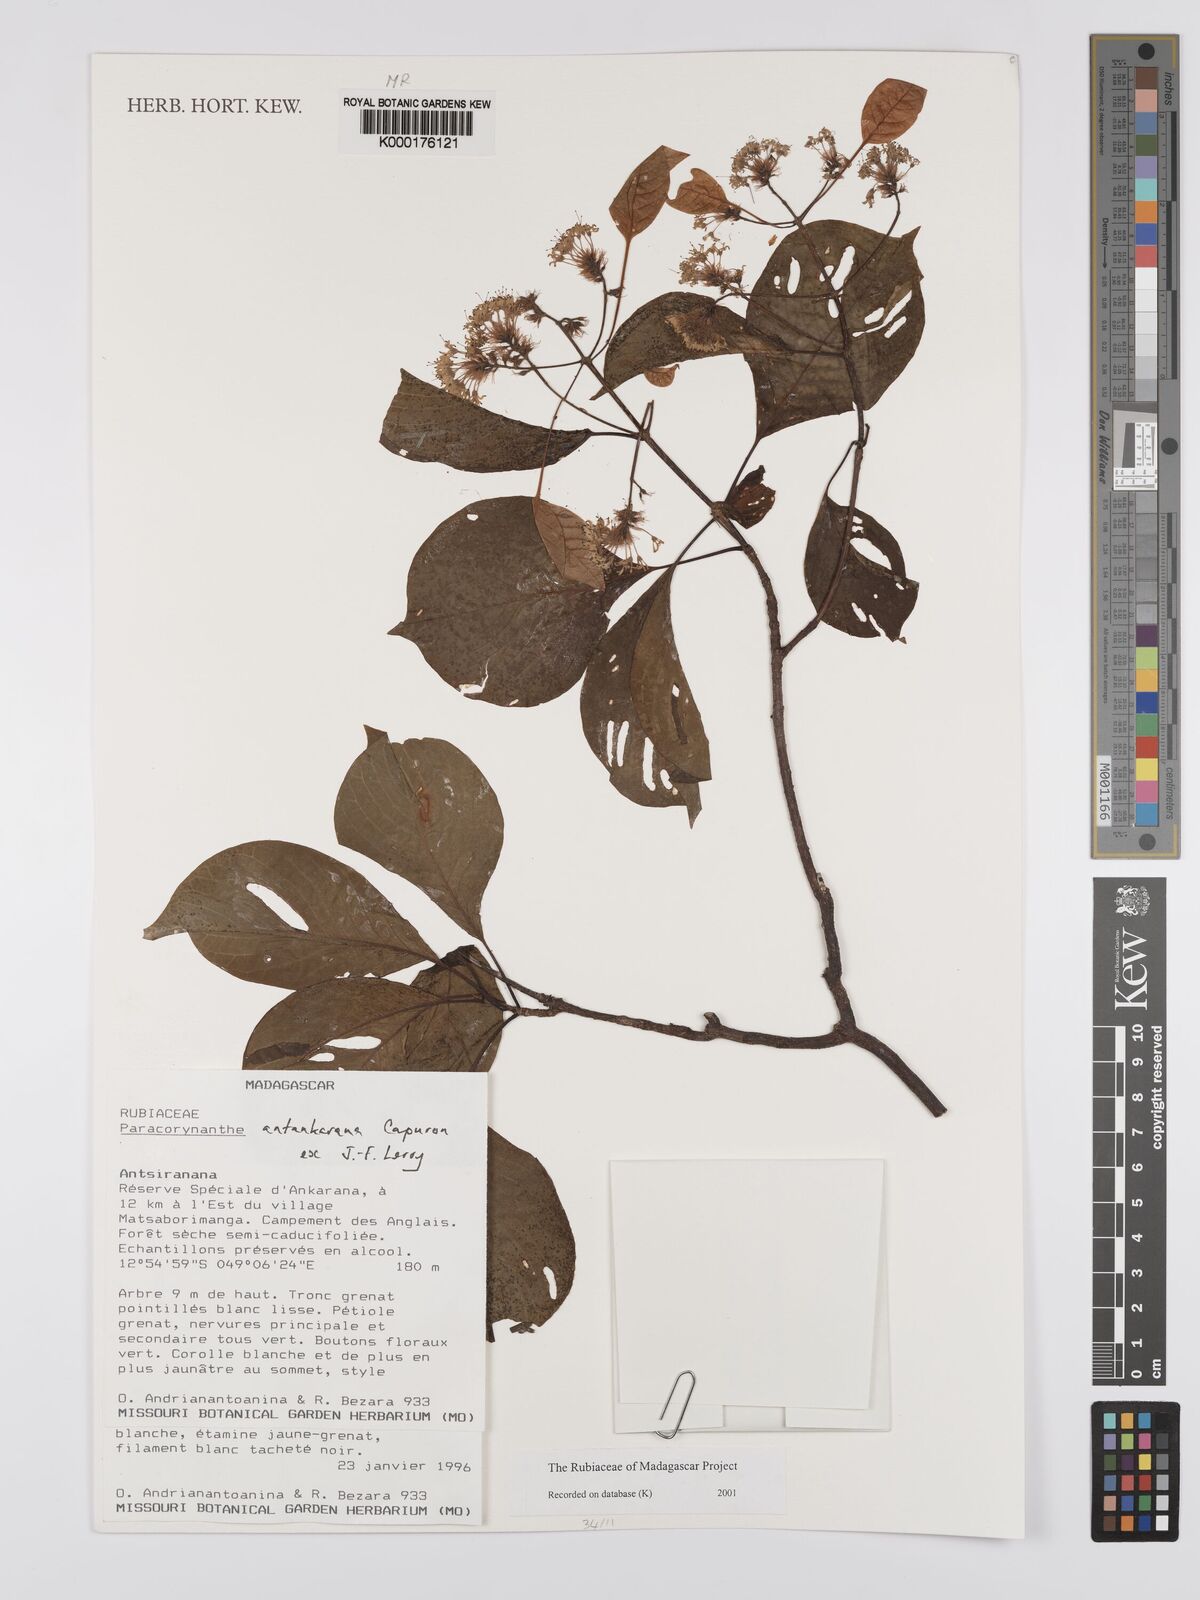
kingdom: Plantae
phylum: Tracheophyta
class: Magnoliopsida
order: Gentianales
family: Rubiaceae
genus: Paracorynanthe
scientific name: Paracorynanthe antankarana
